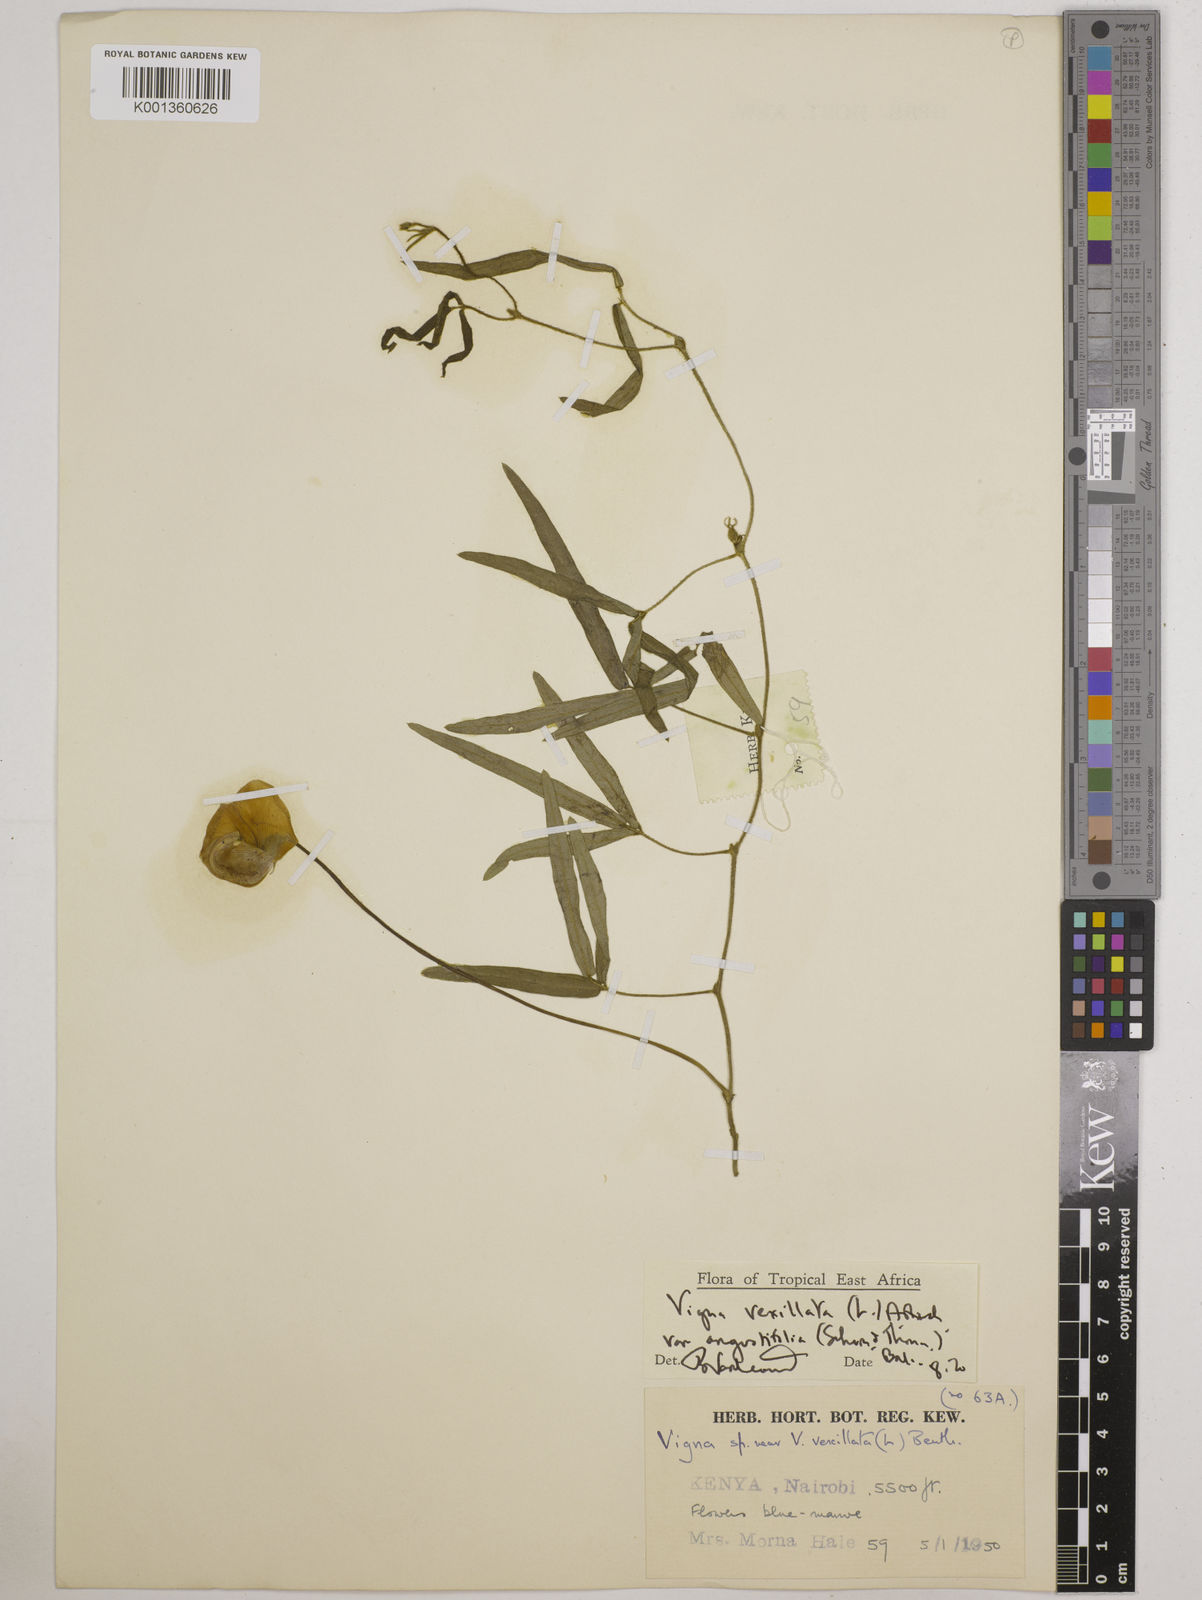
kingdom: Plantae
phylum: Tracheophyta
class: Magnoliopsida
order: Fabales
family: Fabaceae
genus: Vigna
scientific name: Vigna vexillata
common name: Zombi pea
